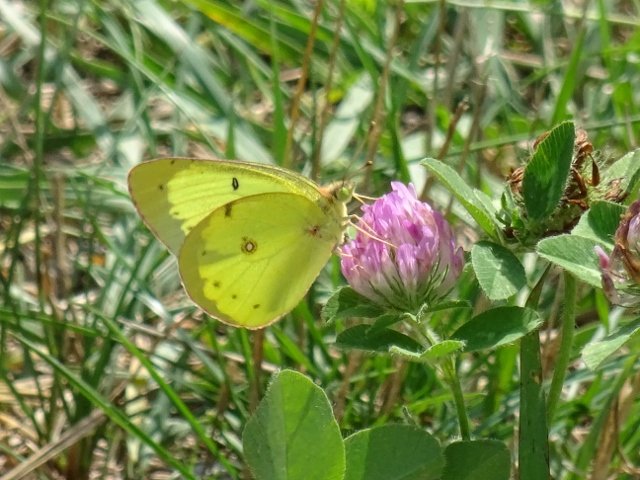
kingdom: Animalia
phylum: Arthropoda
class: Insecta
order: Lepidoptera
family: Pieridae
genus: Colias
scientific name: Colias philodice
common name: Clouded Sulphur
